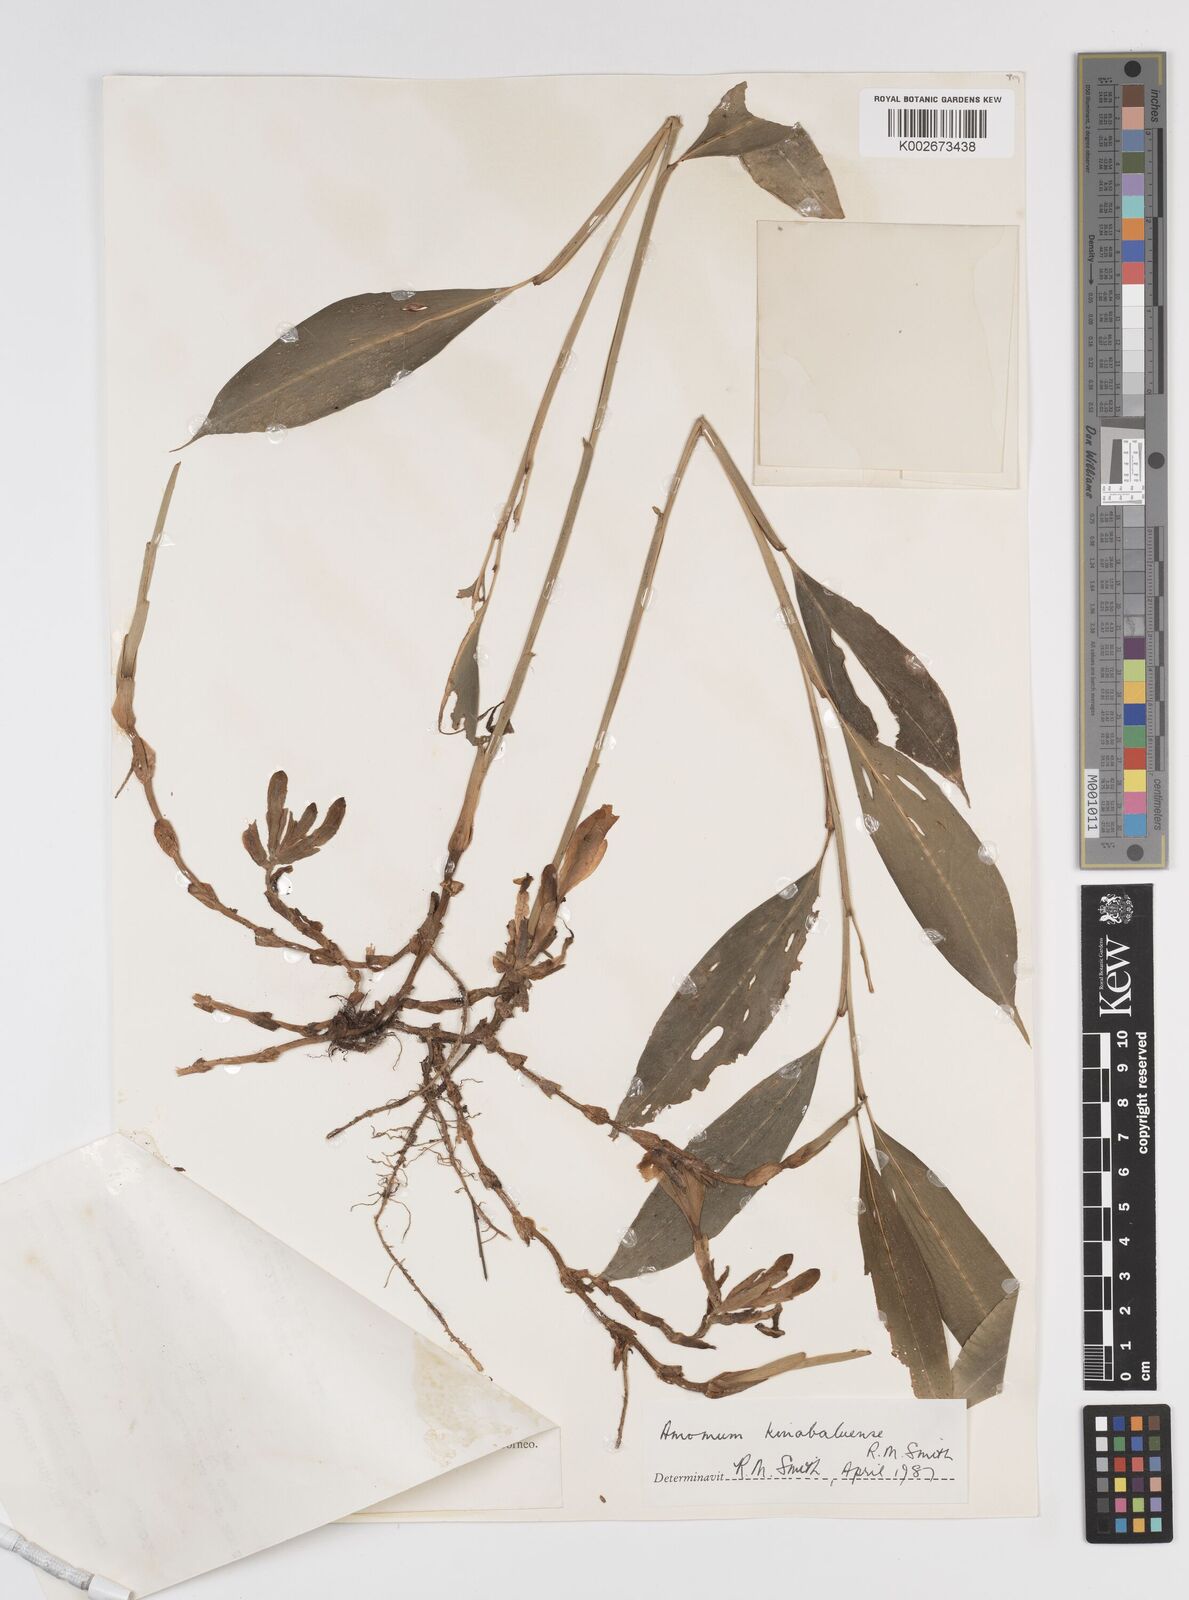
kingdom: Plantae
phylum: Tracheophyta
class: Liliopsida
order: Zingiberales
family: Zingiberaceae
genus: Meistera
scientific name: Meistera kinabaluensis
